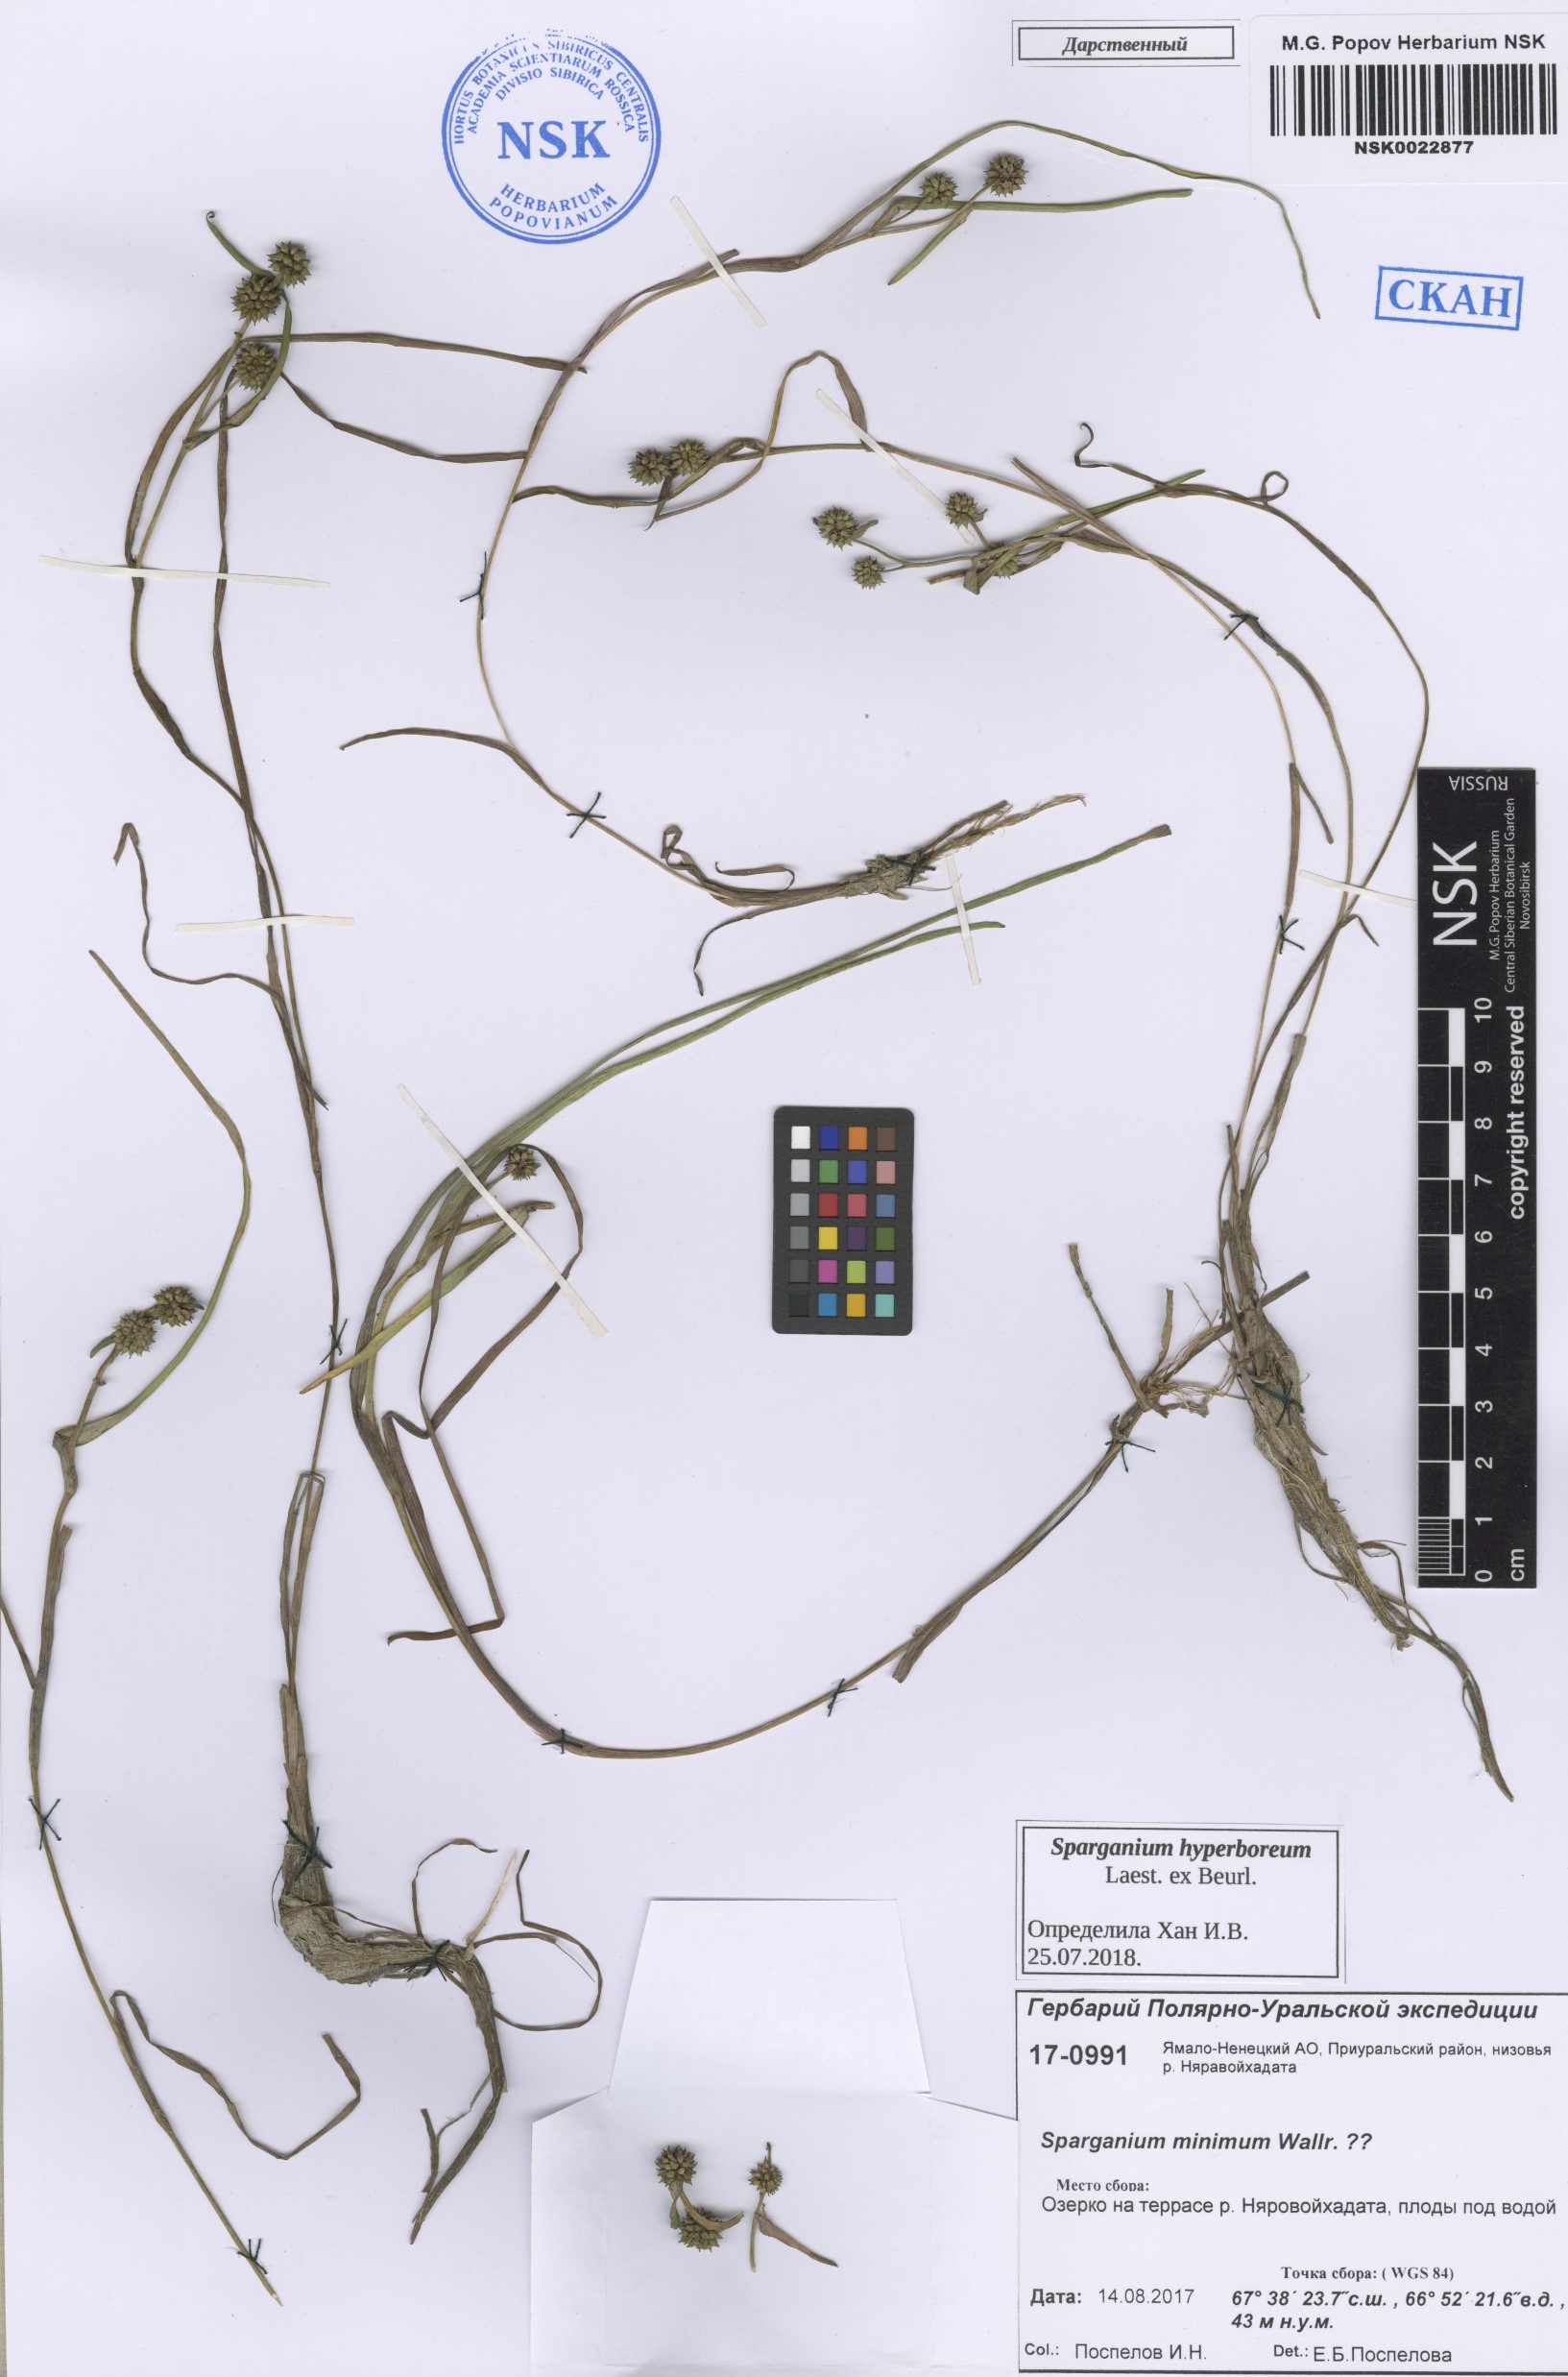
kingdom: Plantae
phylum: Tracheophyta
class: Liliopsida
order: Poales
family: Typhaceae
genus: Sparganium
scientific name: Sparganium hyperboreum
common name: Arctic burreed
